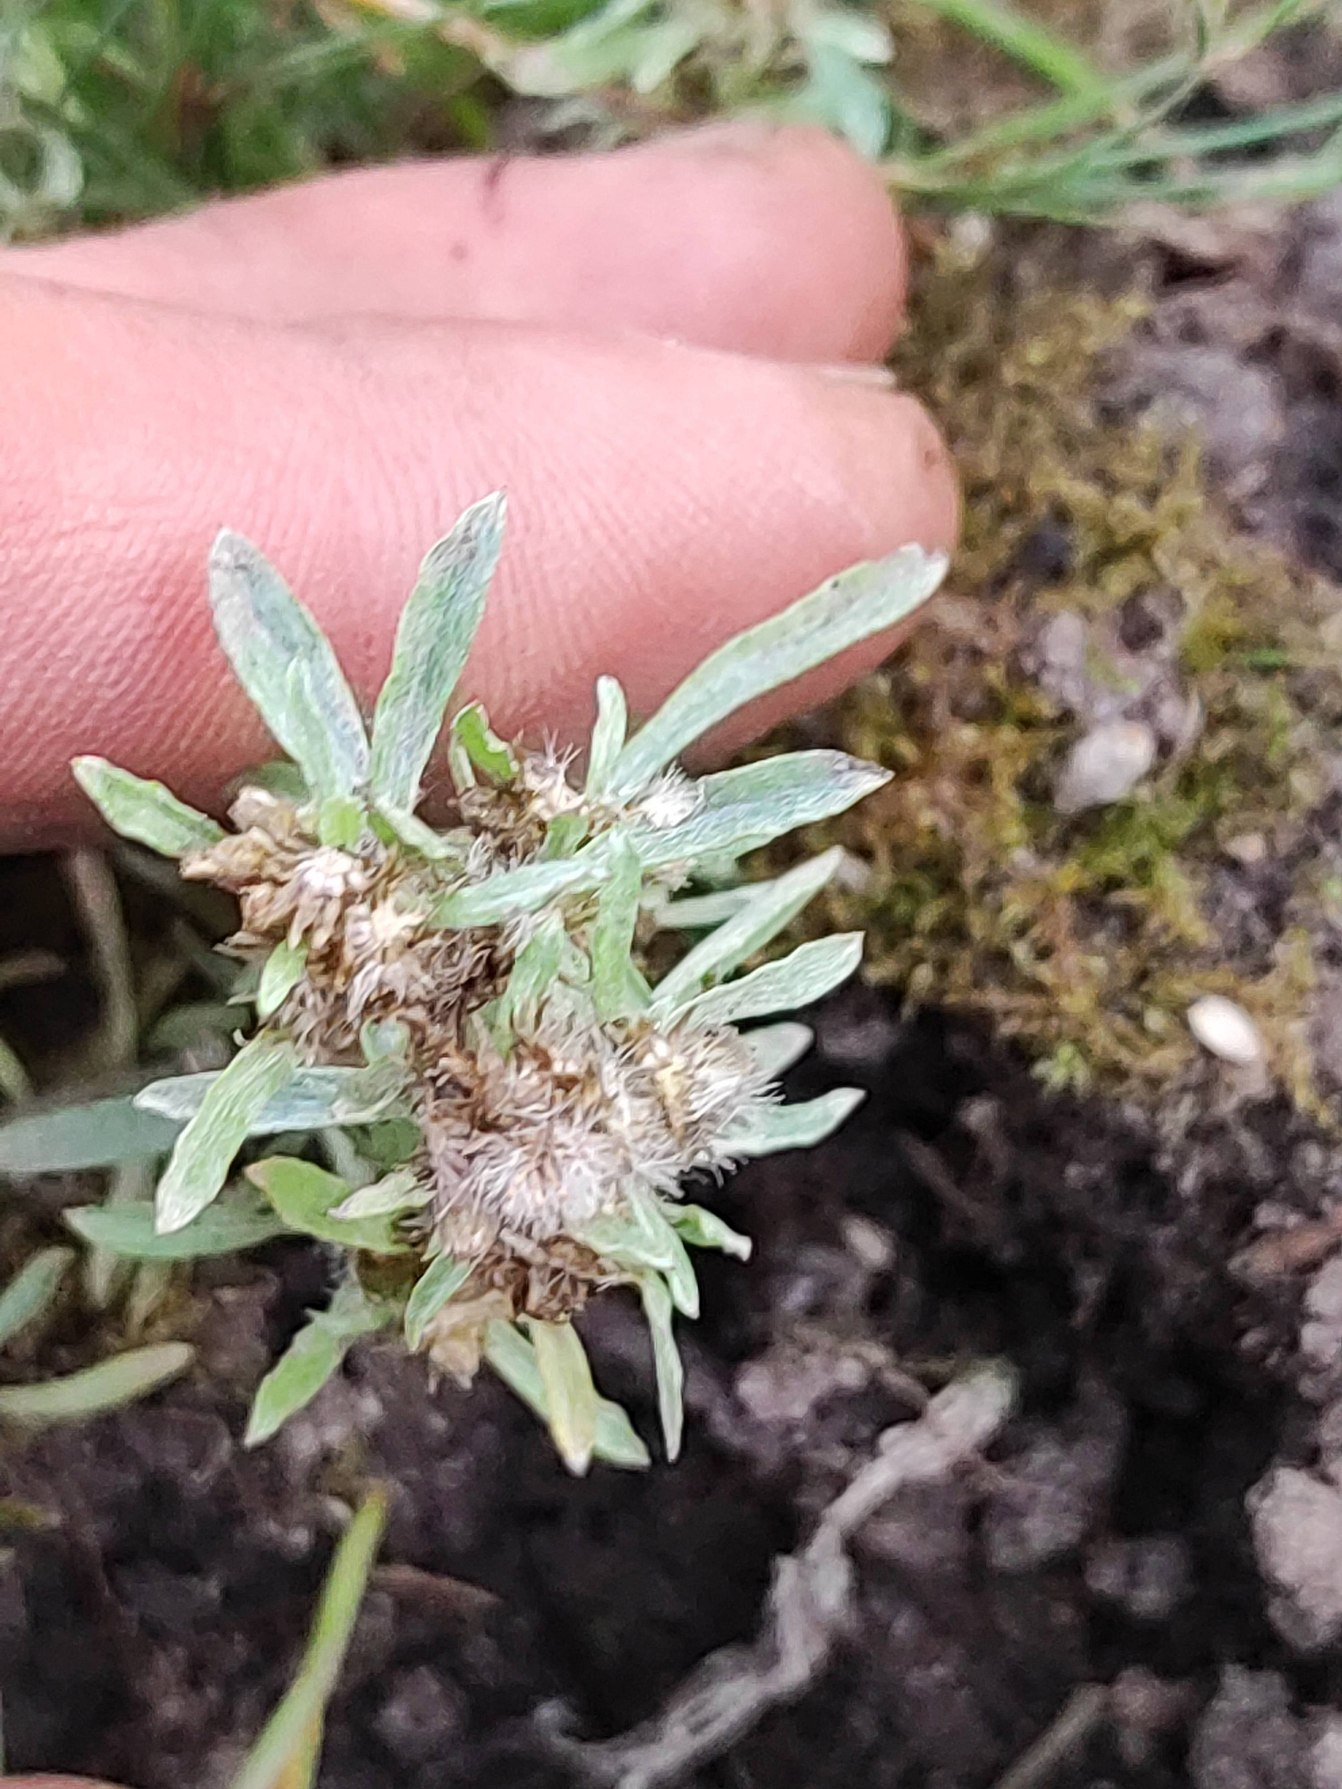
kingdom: Plantae
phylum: Tracheophyta
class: Magnoliopsida
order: Asterales
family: Asteraceae
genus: Gnaphalium
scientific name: Gnaphalium uliginosum
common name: Sump-evighedsblomst
